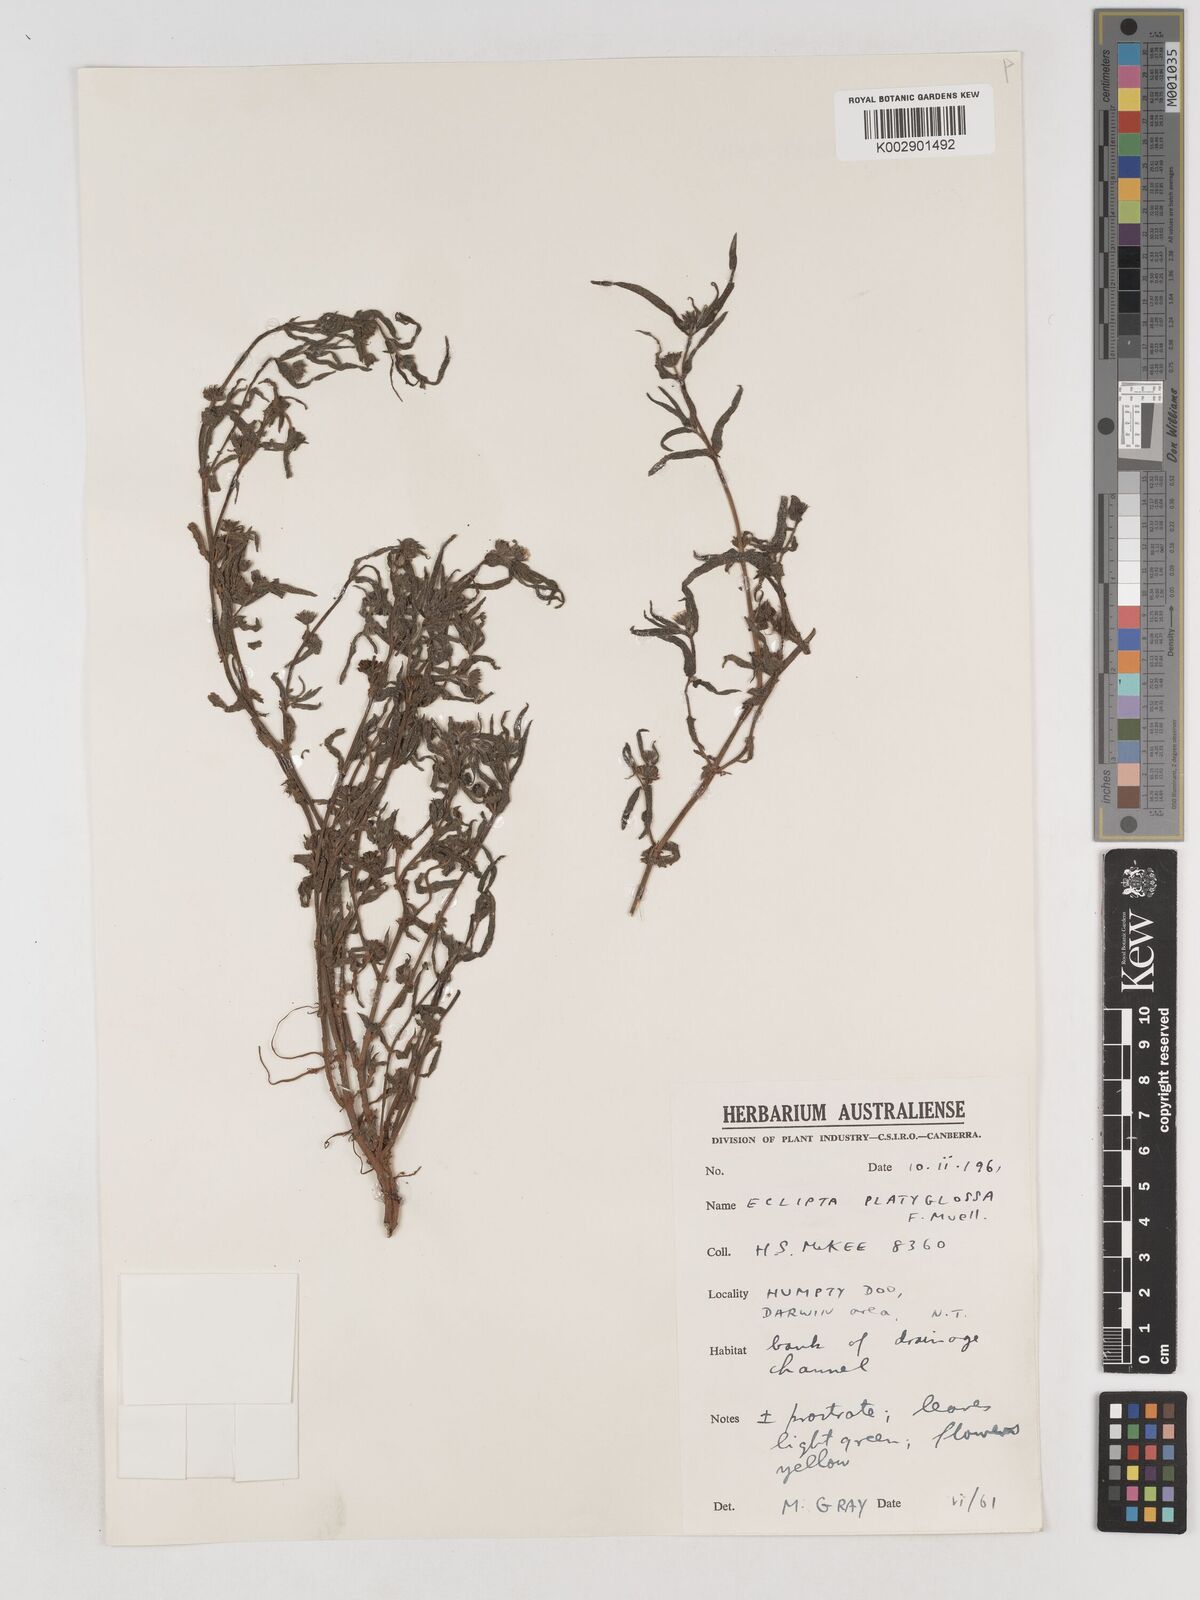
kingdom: Plantae
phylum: Tracheophyta
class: Magnoliopsida
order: Asterales
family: Asteraceae
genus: Eclipta
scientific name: Eclipta platyglossa
